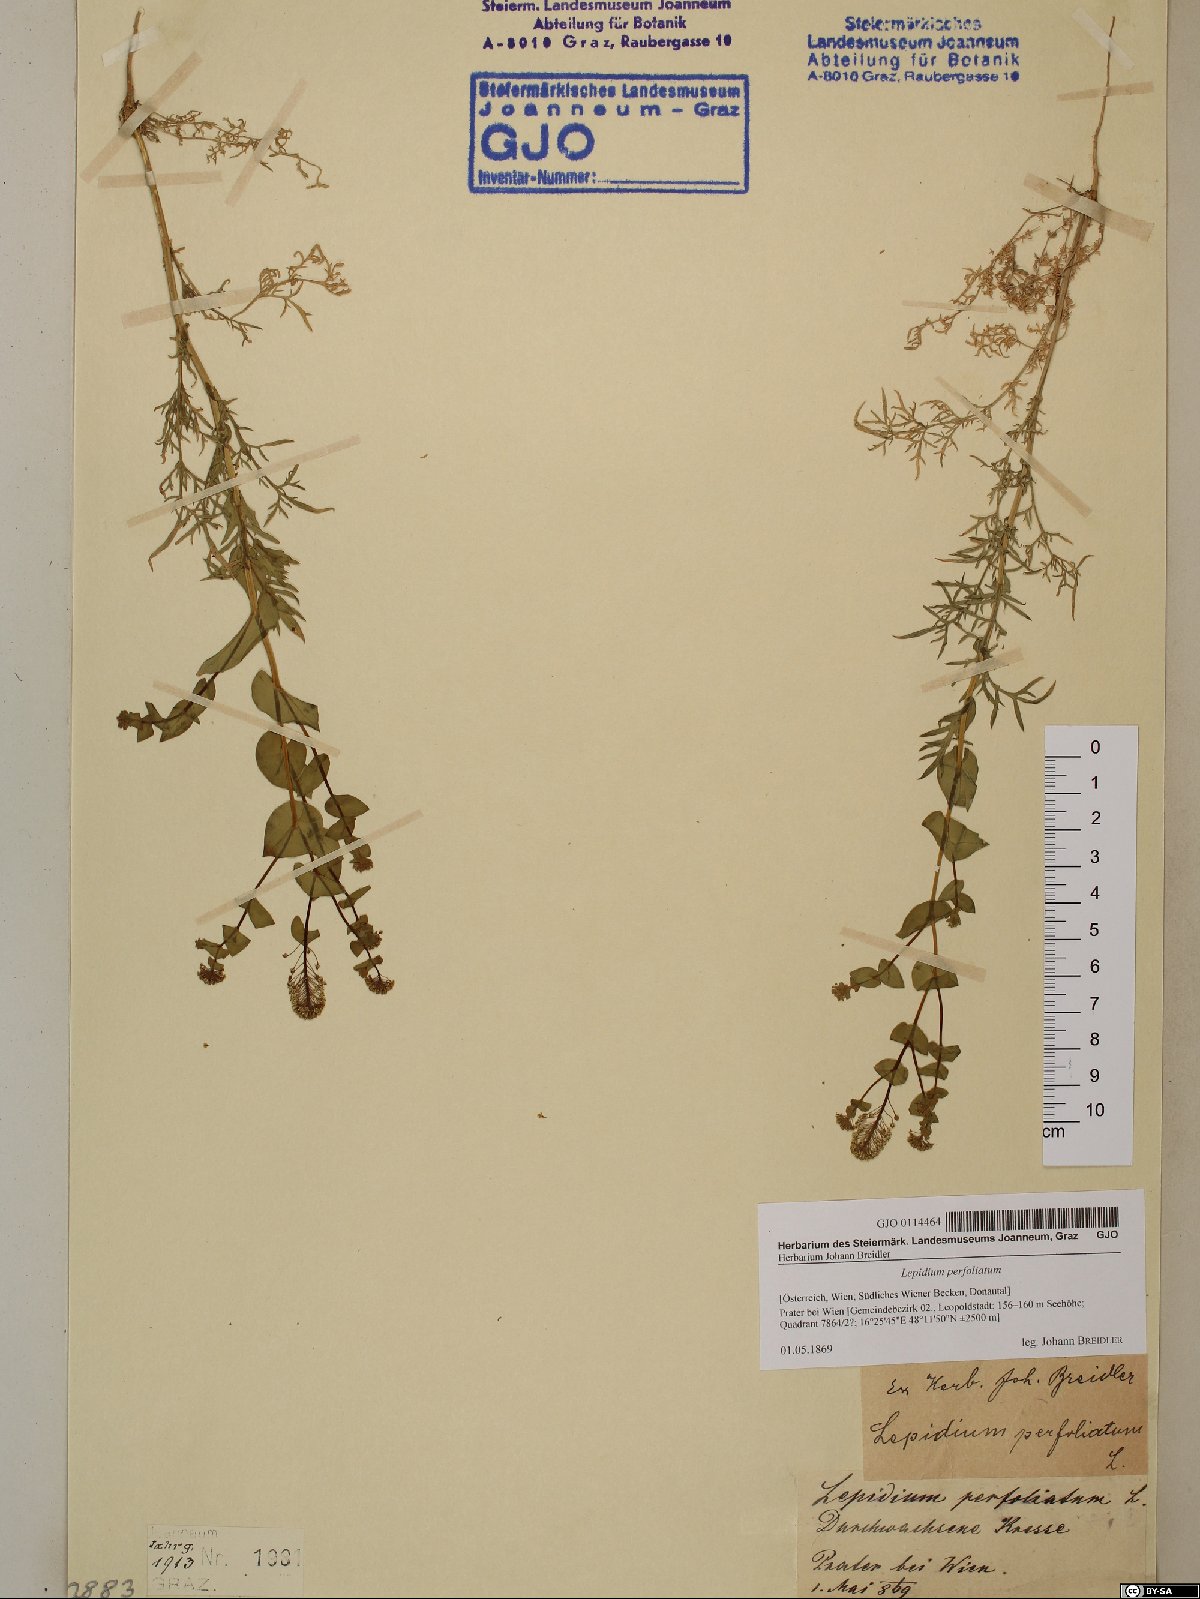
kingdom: Plantae
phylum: Tracheophyta
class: Magnoliopsida
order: Brassicales
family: Brassicaceae
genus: Lepidium
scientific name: Lepidium perfoliatum
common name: Perfoliate pepperwort
